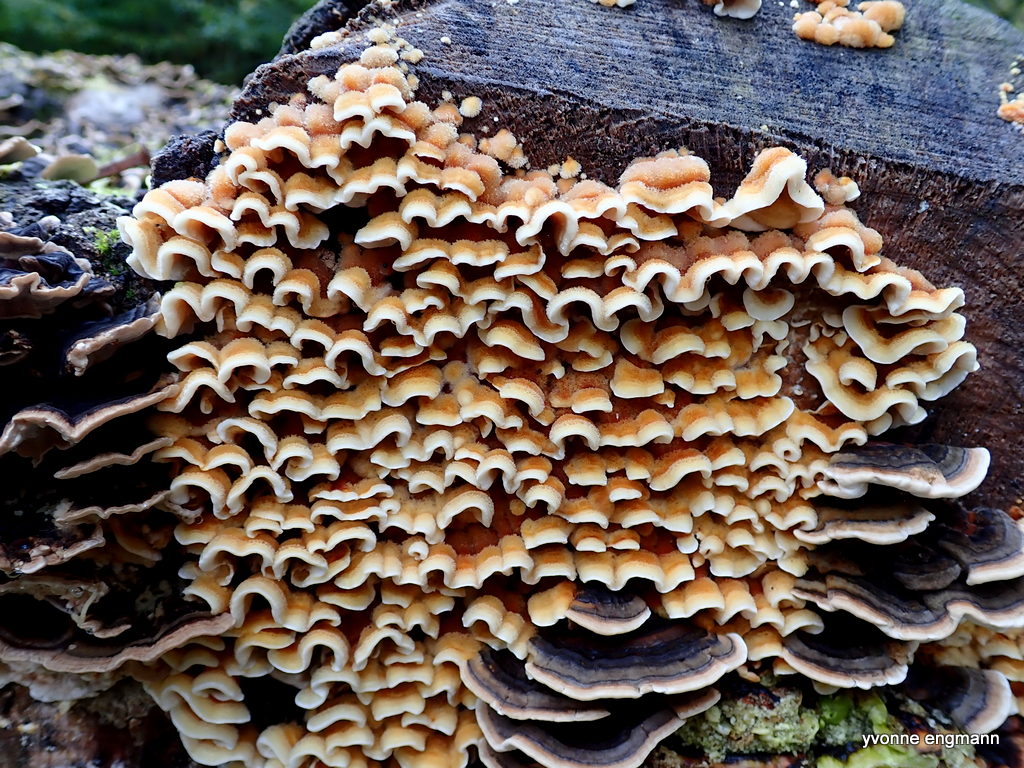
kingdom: Fungi
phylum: Basidiomycota
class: Agaricomycetes
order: Russulales
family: Stereaceae
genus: Stereum
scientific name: Stereum hirsutum
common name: håret lædersvamp
